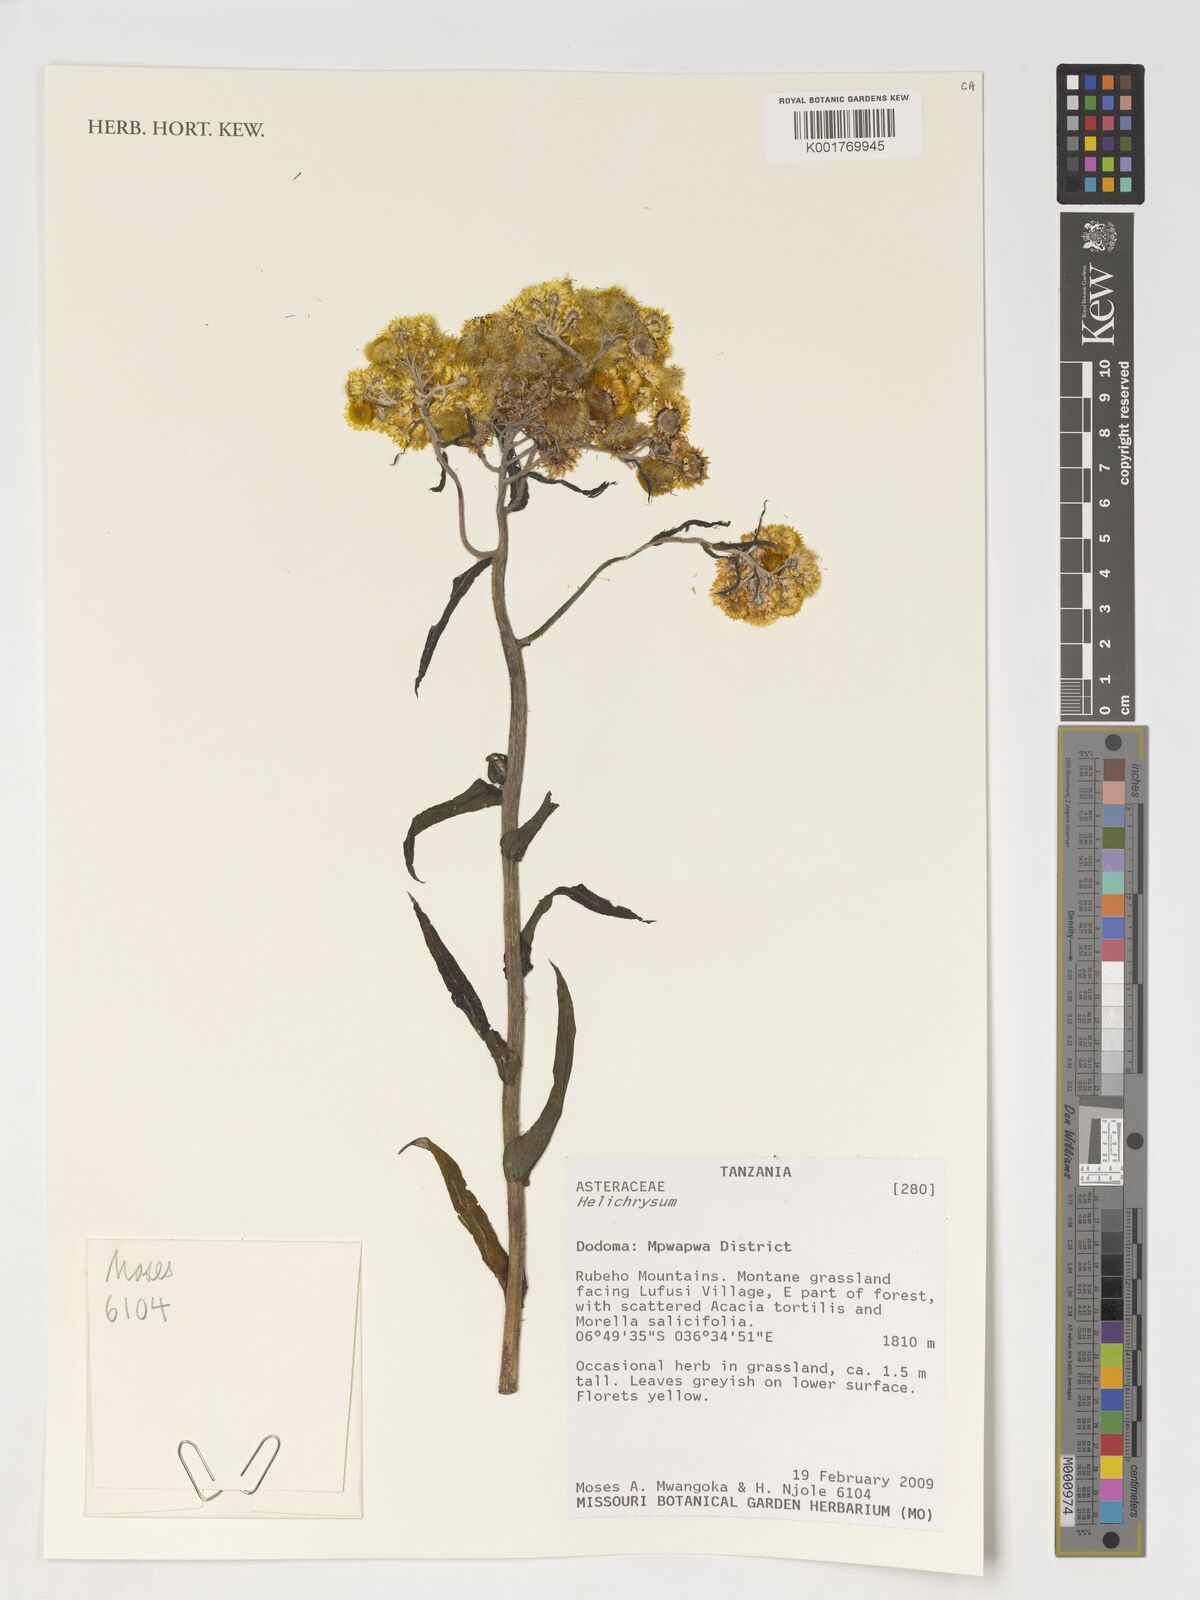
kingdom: Plantae
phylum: Tracheophyta
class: Magnoliopsida
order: Asterales
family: Asteraceae
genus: Helichrysum
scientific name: Helichrysum
